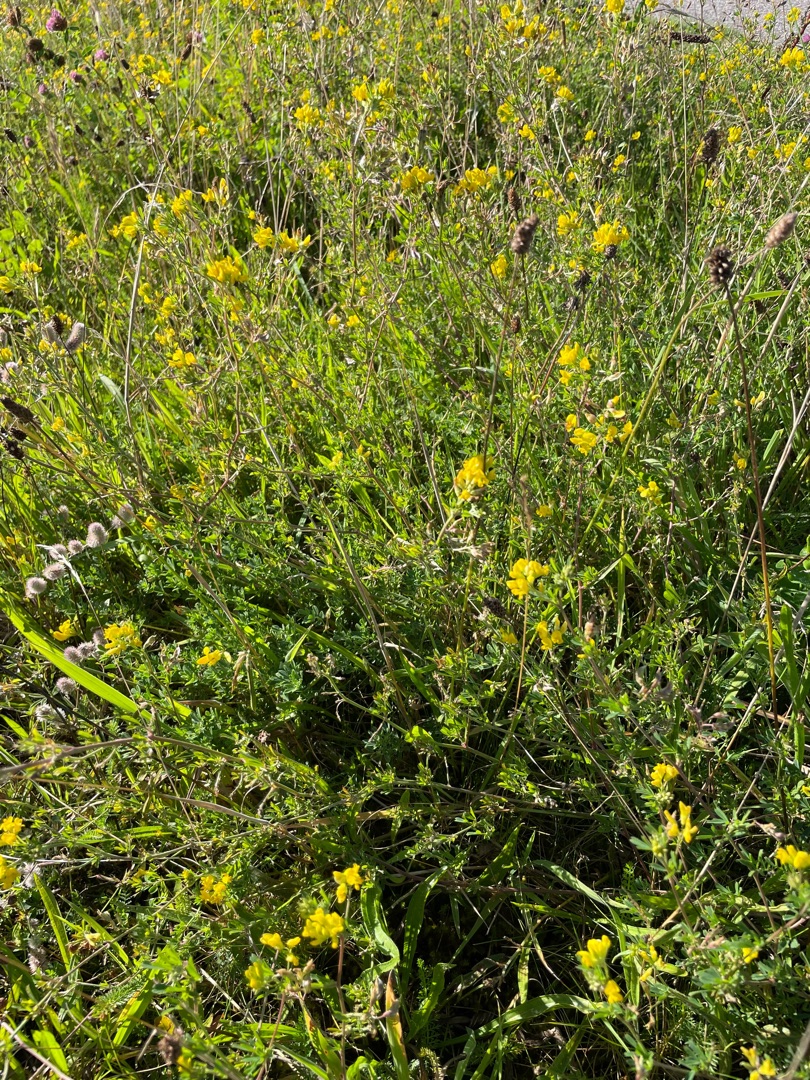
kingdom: Plantae
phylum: Tracheophyta
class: Magnoliopsida
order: Fabales
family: Fabaceae
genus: Medicago
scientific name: Medicago falcata
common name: Segl-sneglebælg
